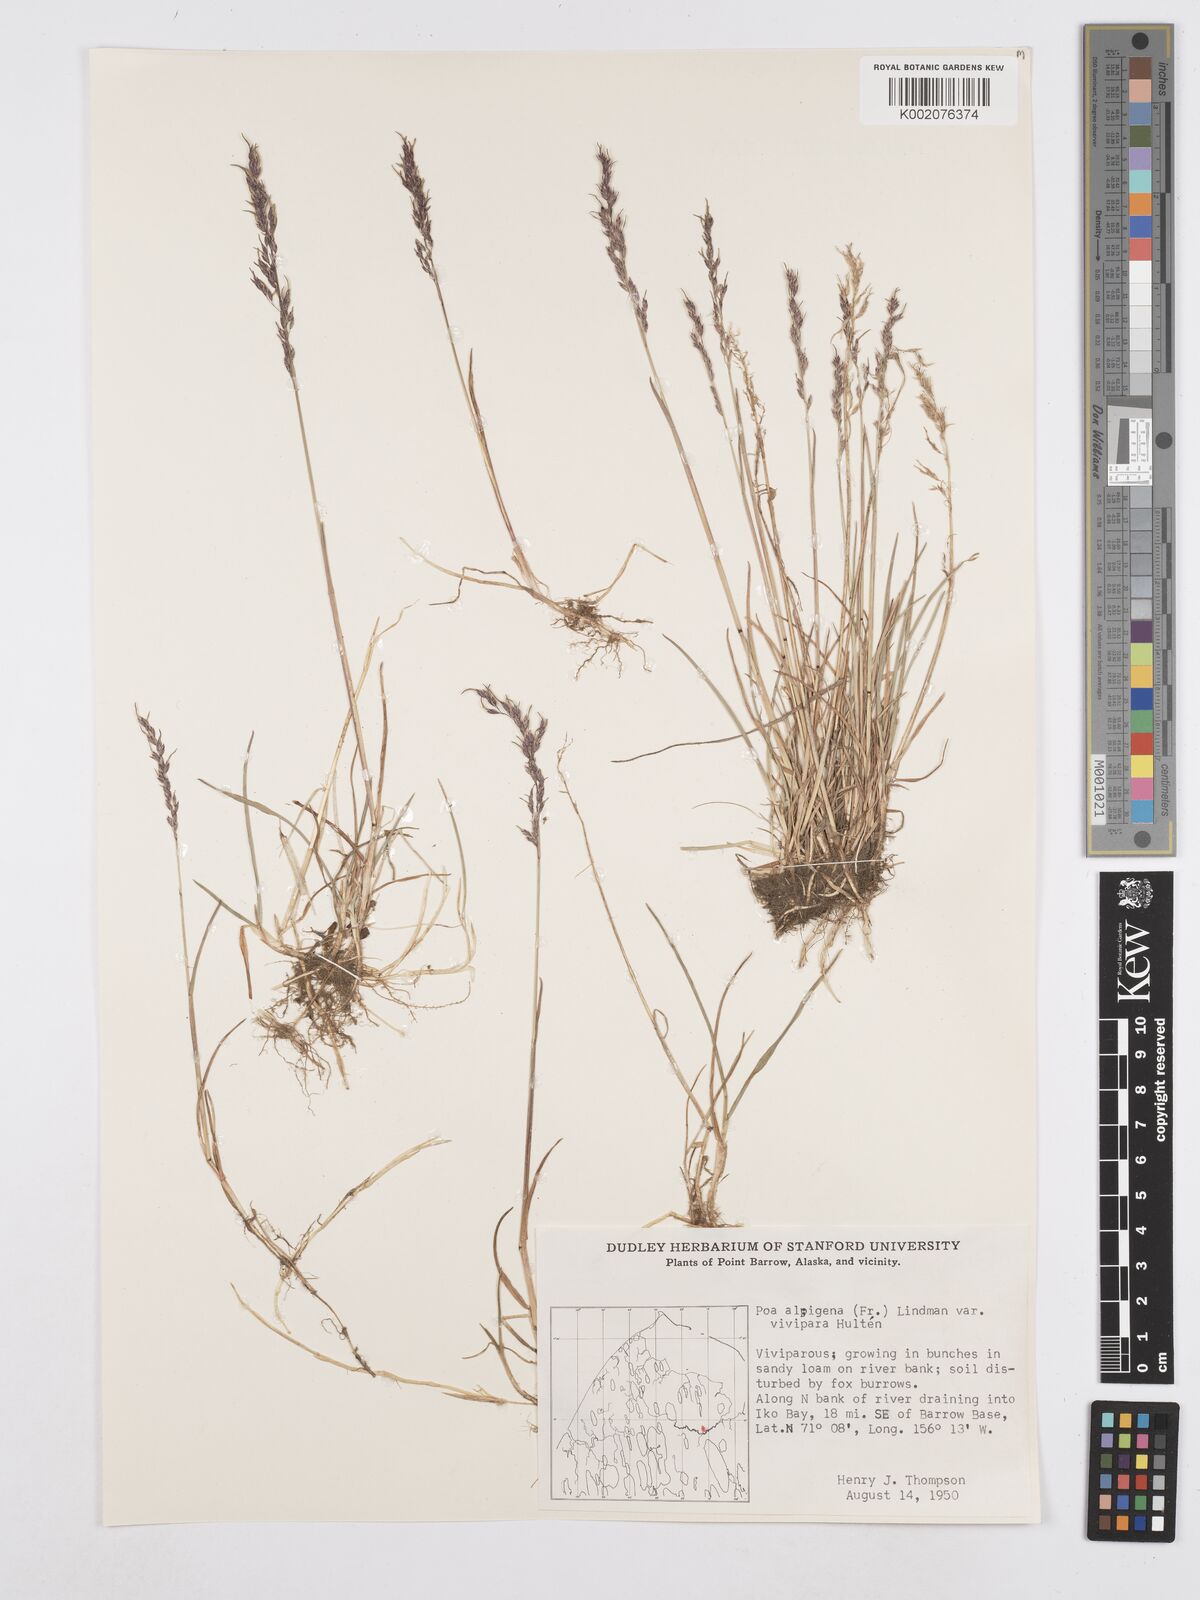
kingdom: Plantae
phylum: Tracheophyta
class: Liliopsida
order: Poales
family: Poaceae
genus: Poa
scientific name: Poa alpigena
